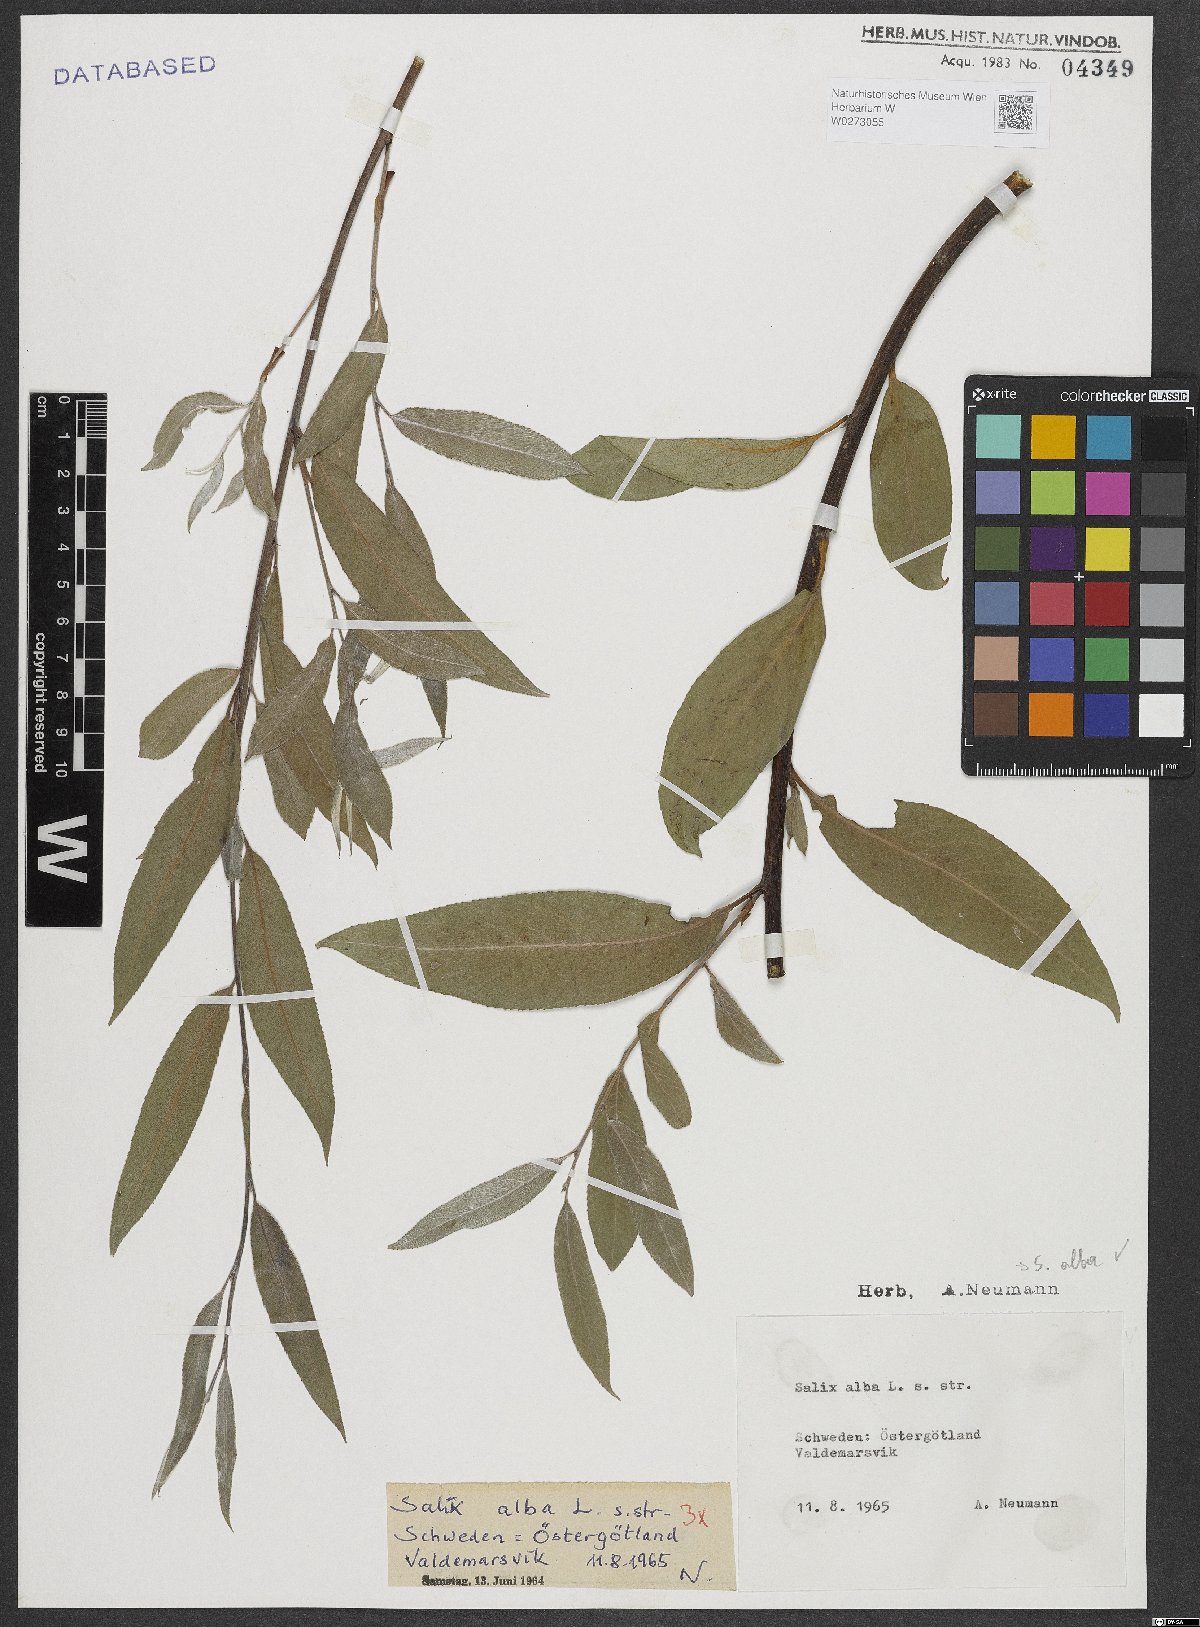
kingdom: Plantae
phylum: Tracheophyta
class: Magnoliopsida
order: Malpighiales
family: Salicaceae
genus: Salix
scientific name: Salix alba
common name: White willow
